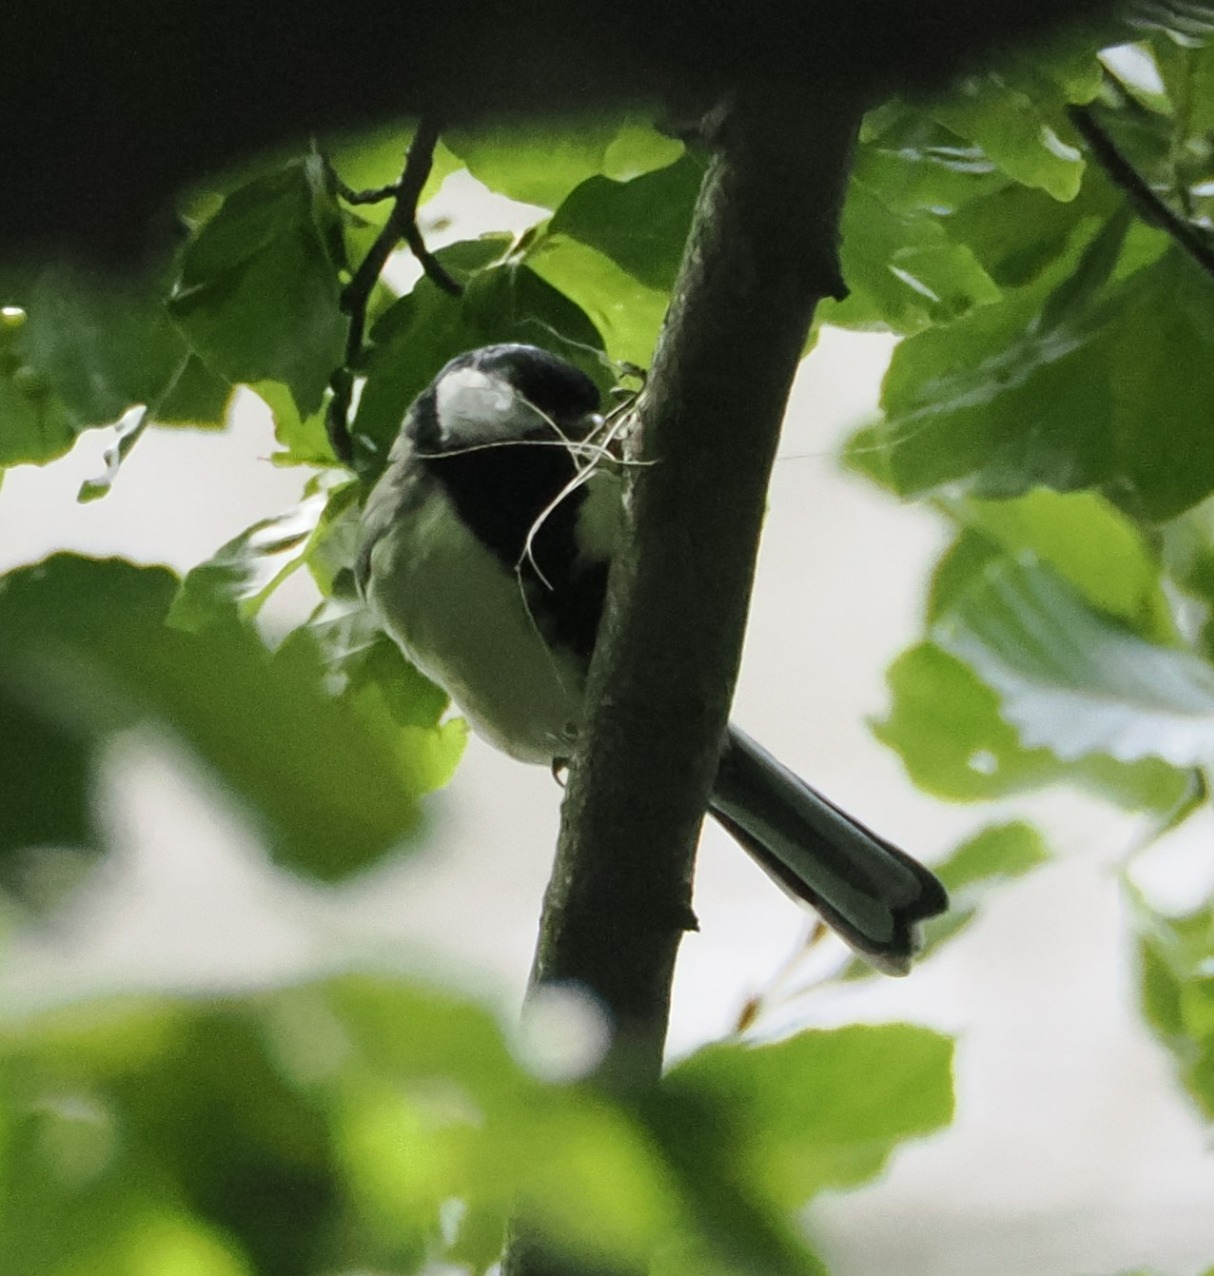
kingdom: Animalia
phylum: Chordata
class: Aves
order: Passeriformes
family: Paridae
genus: Parus
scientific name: Parus major
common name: Musvit
